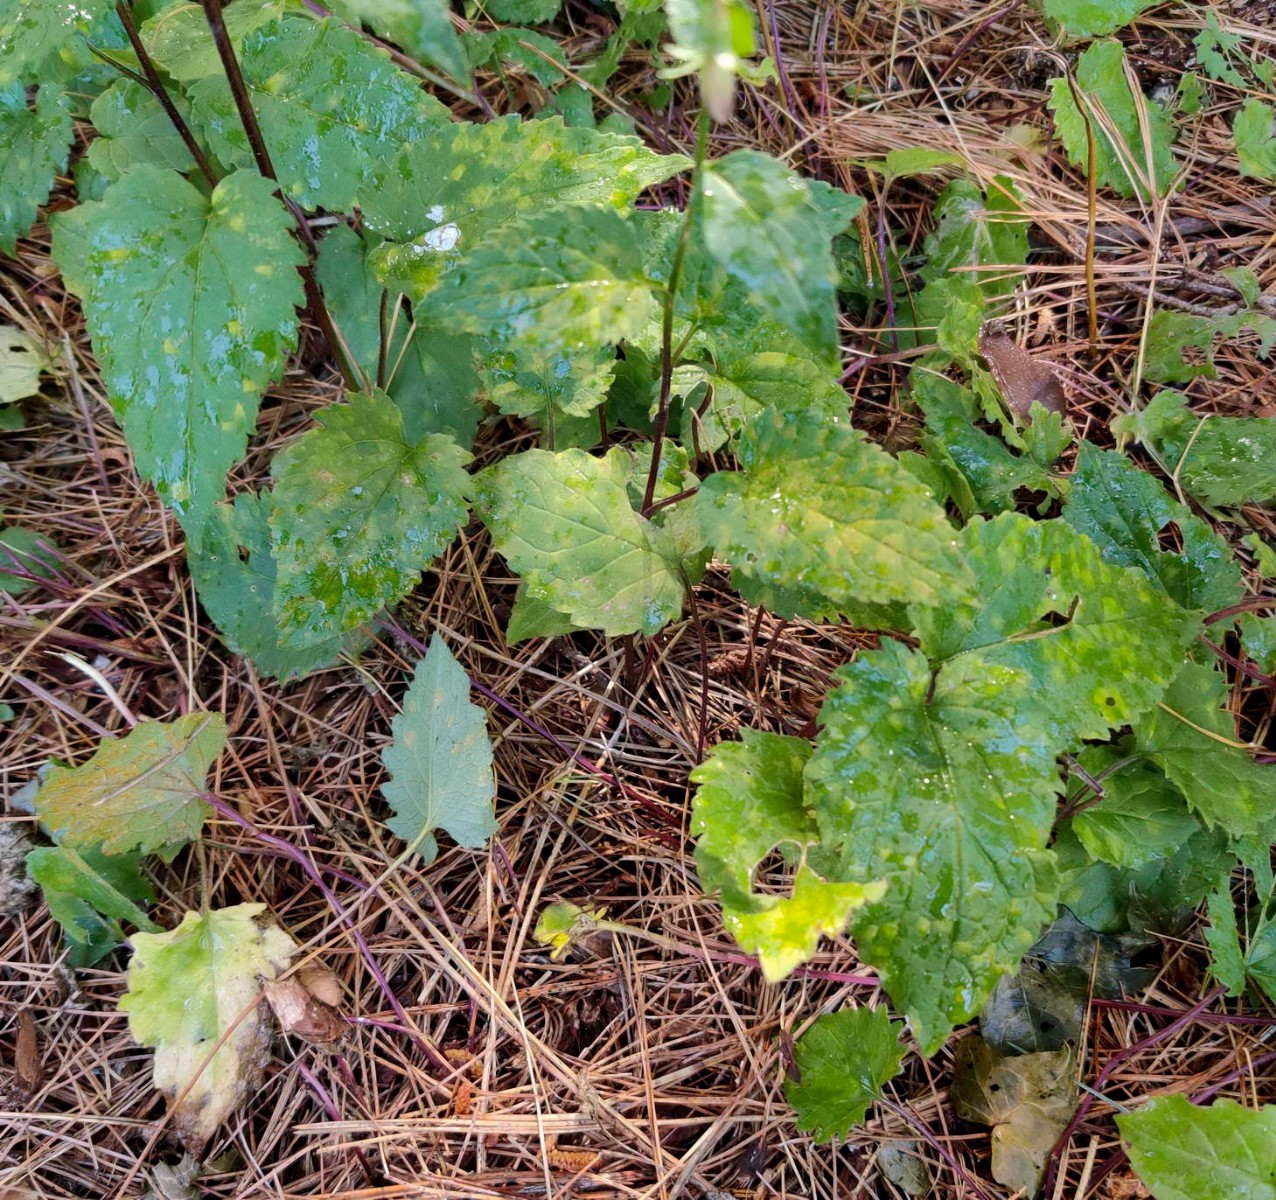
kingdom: Fungi
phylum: Basidiomycota
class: Pucciniomycetes
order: Pucciniales
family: Coleosporiaceae
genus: Coleosporium
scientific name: Coleosporium campanulae
